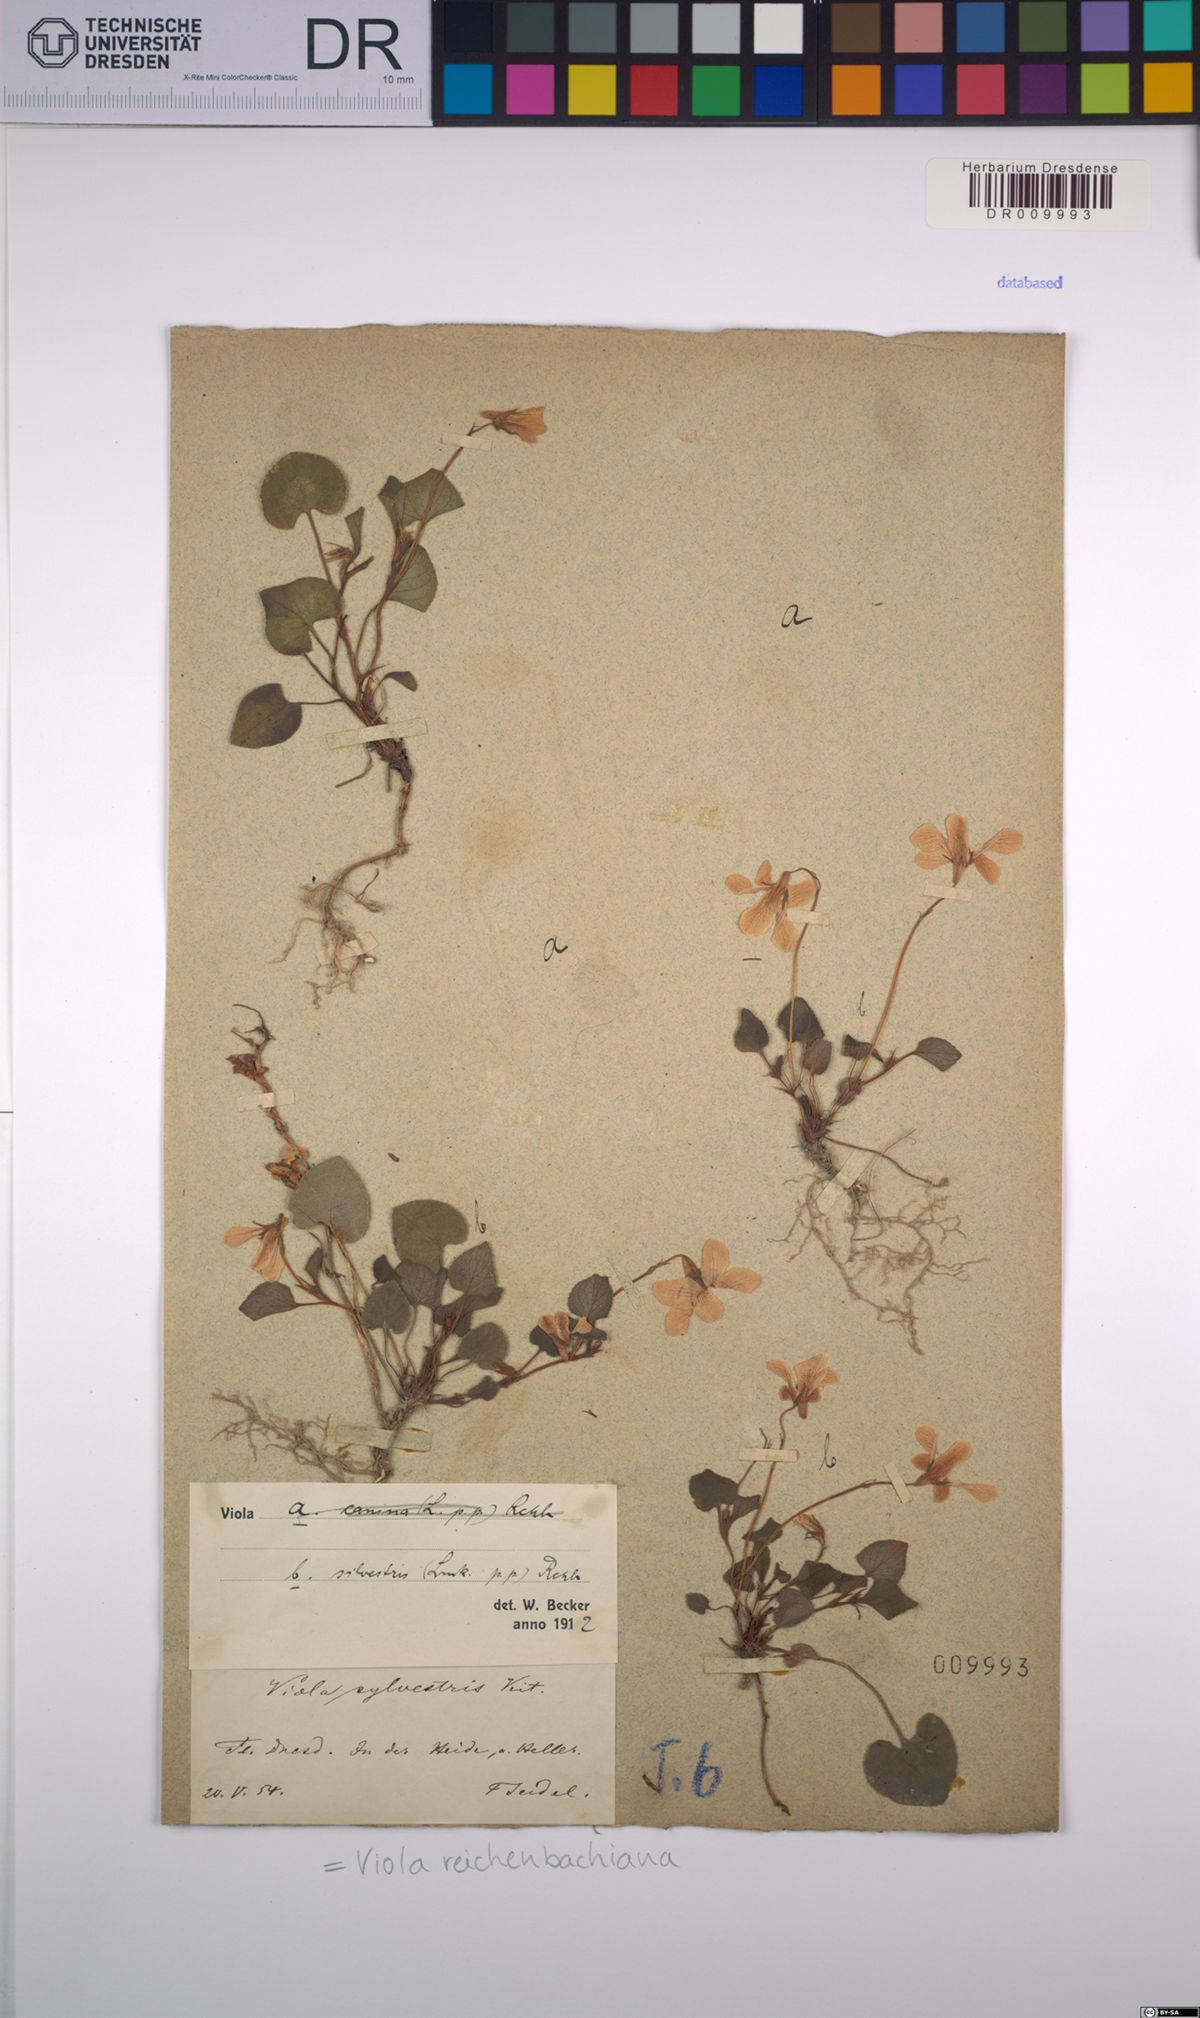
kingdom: Plantae
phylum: Tracheophyta
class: Magnoliopsida
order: Malpighiales
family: Violaceae
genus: Viola
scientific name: Viola reichenbachiana
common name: Early dog-violet
